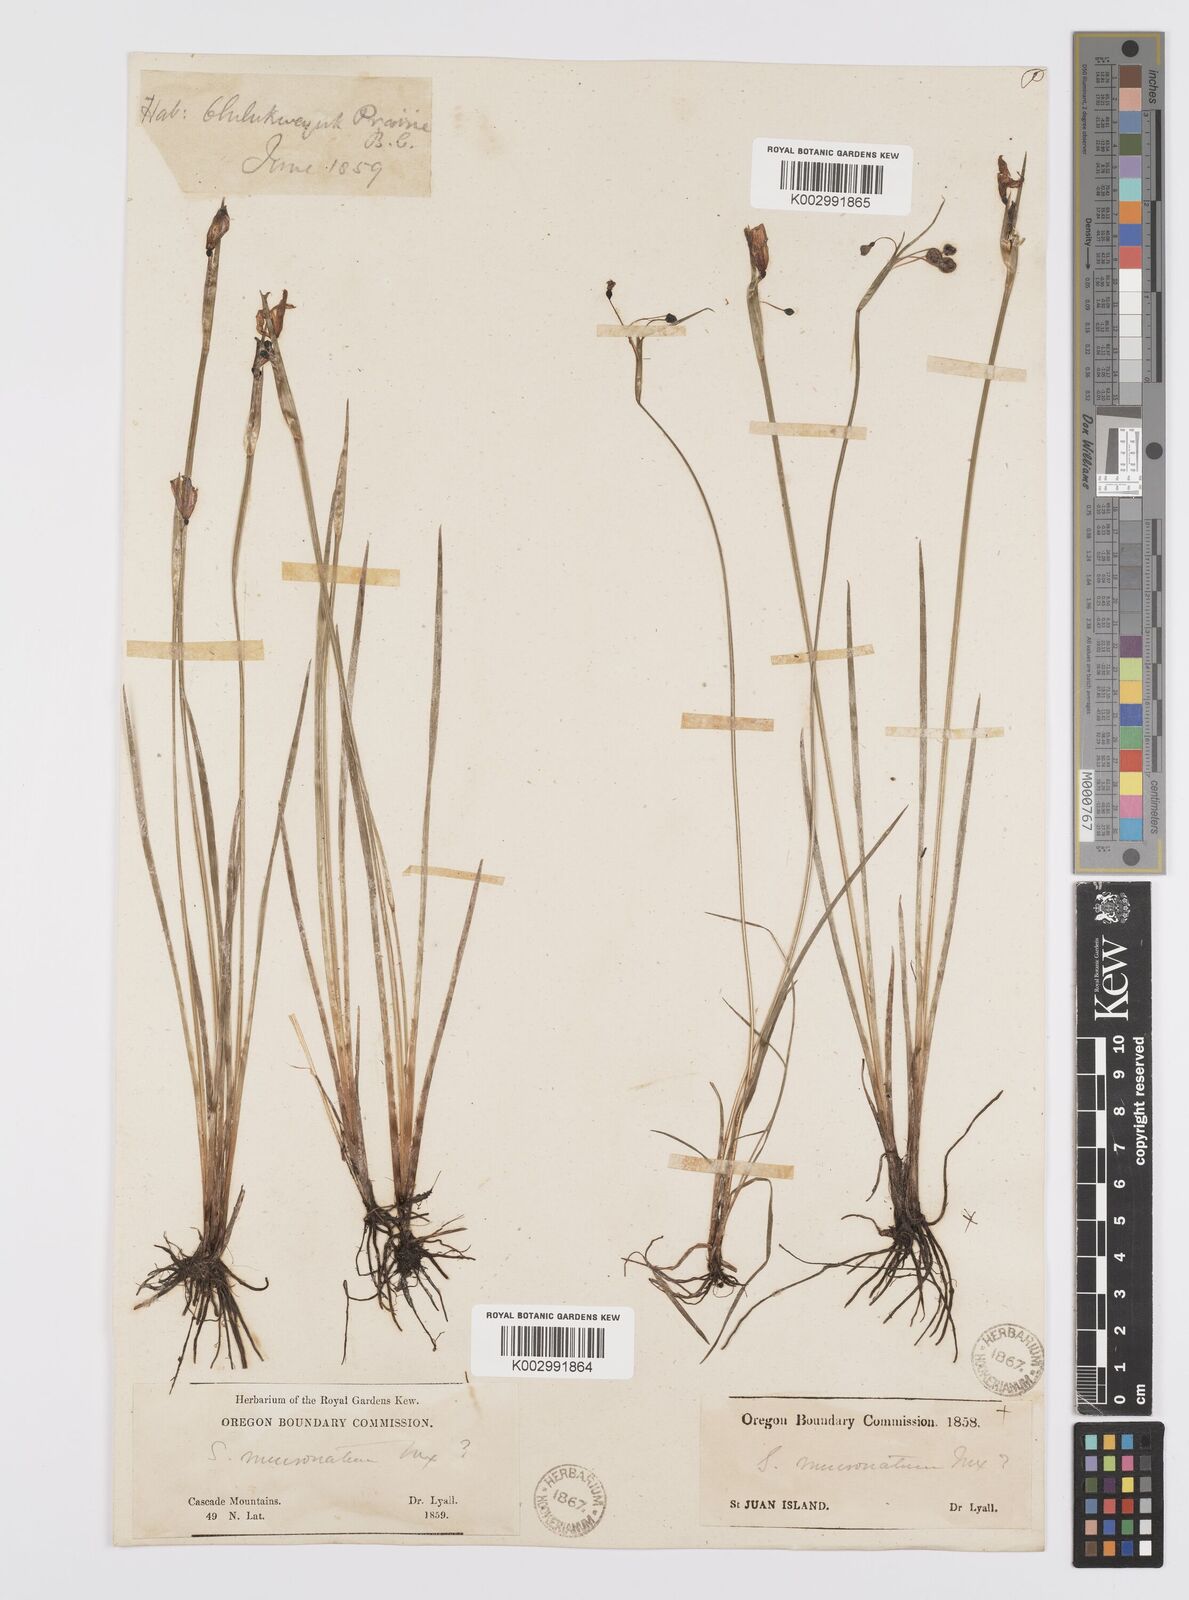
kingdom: Plantae
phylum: Tracheophyta
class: Liliopsida
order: Asparagales
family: Iridaceae
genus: Sisyrinchium
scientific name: Sisyrinchium bermudiana
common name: Blue-eyed-grass
